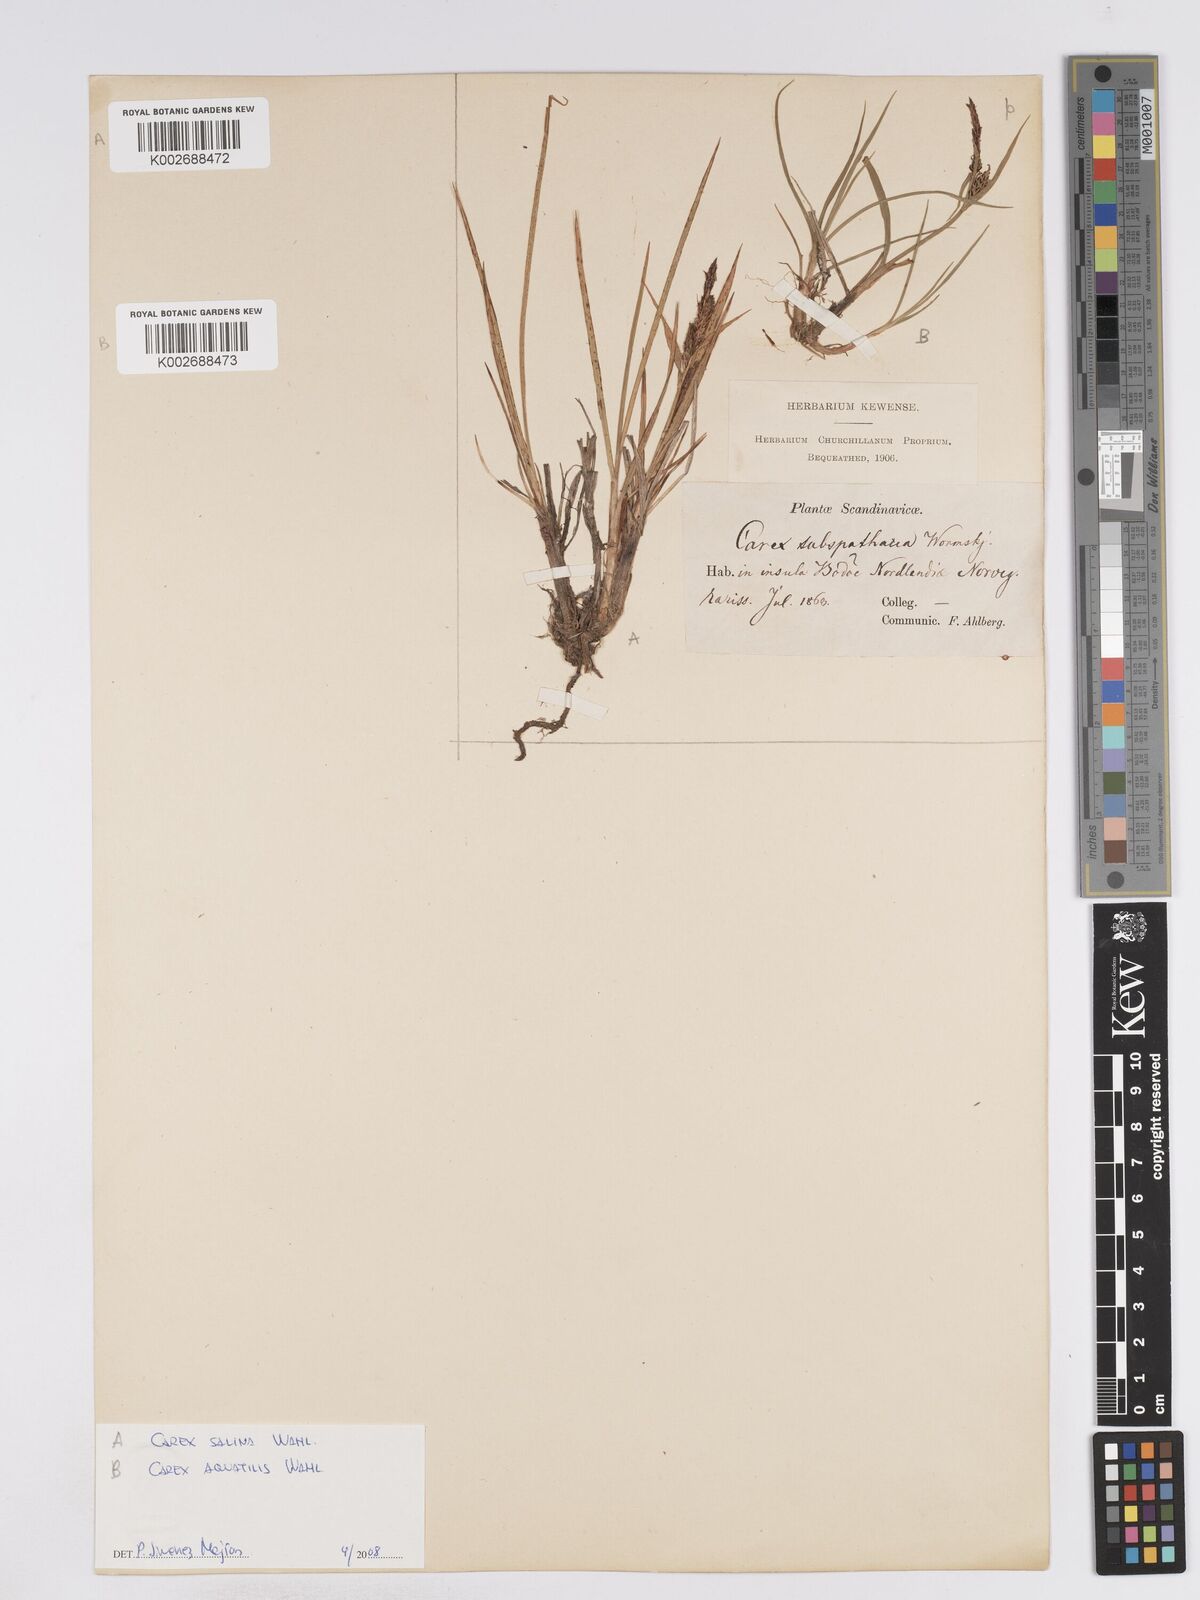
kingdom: Plantae
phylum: Tracheophyta
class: Liliopsida
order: Poales
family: Cyperaceae
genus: Carex
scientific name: Carex salina
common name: Saltmarsh sedge
